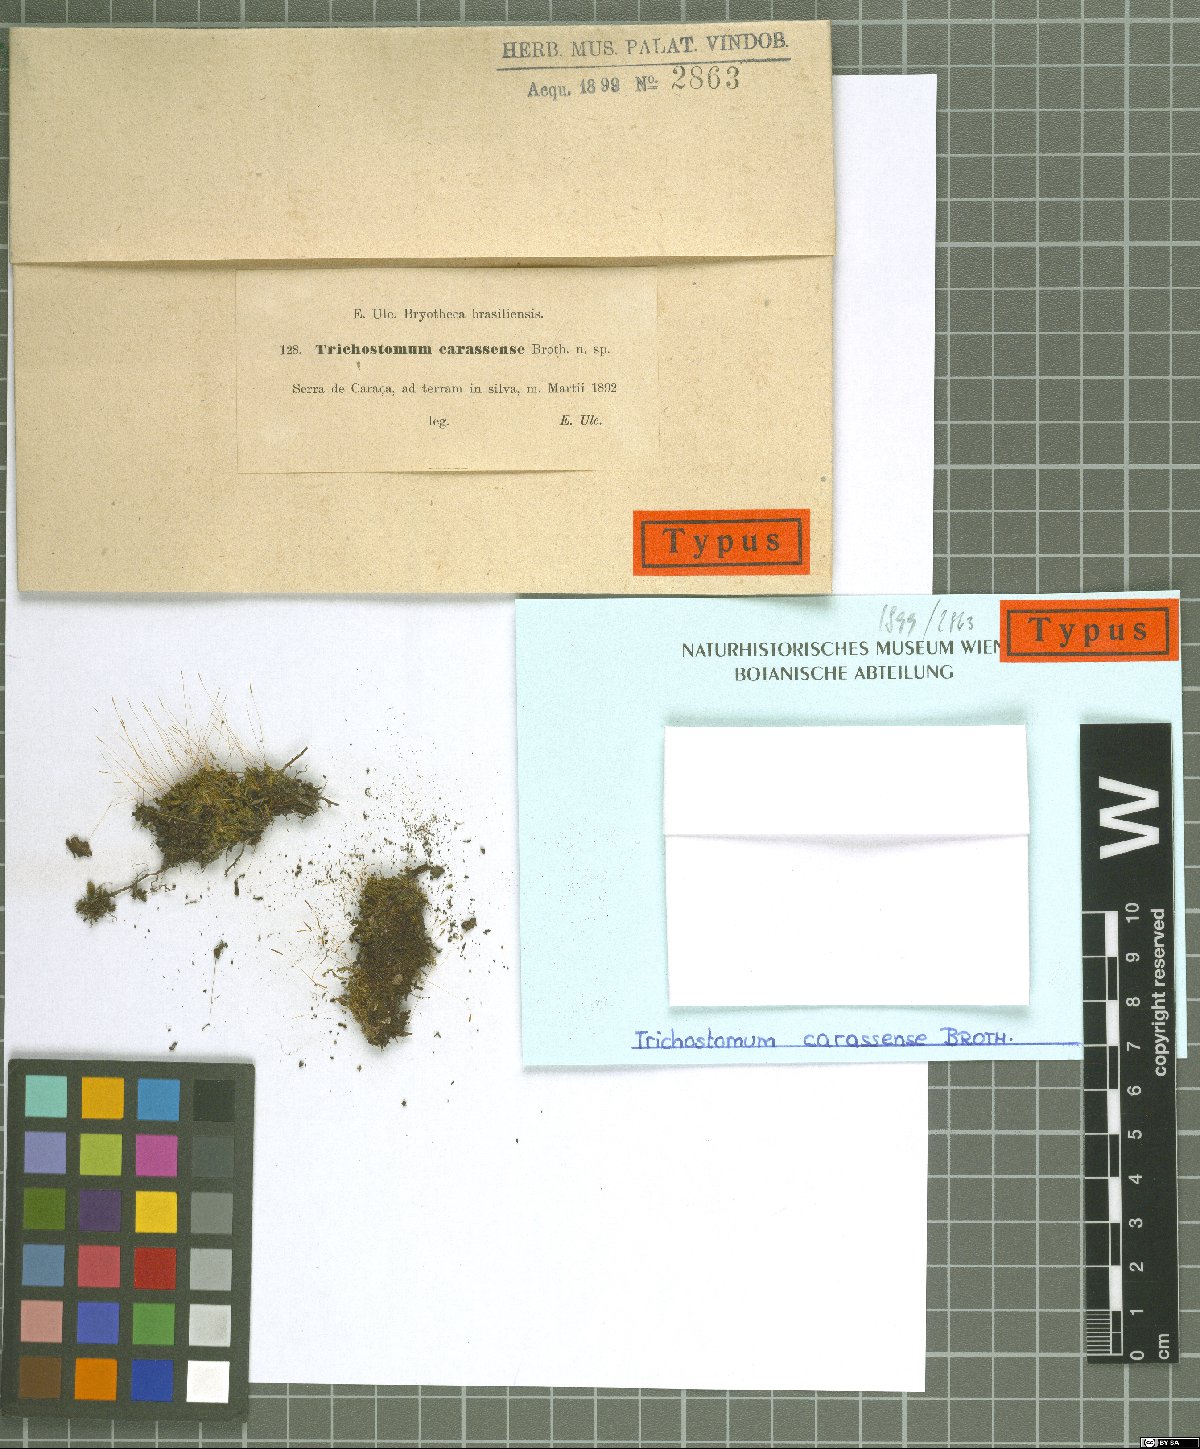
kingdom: Plantae
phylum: Bryophyta
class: Bryopsida
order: Pottiales
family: Pottiaceae
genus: Trichostomum
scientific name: Trichostomum
